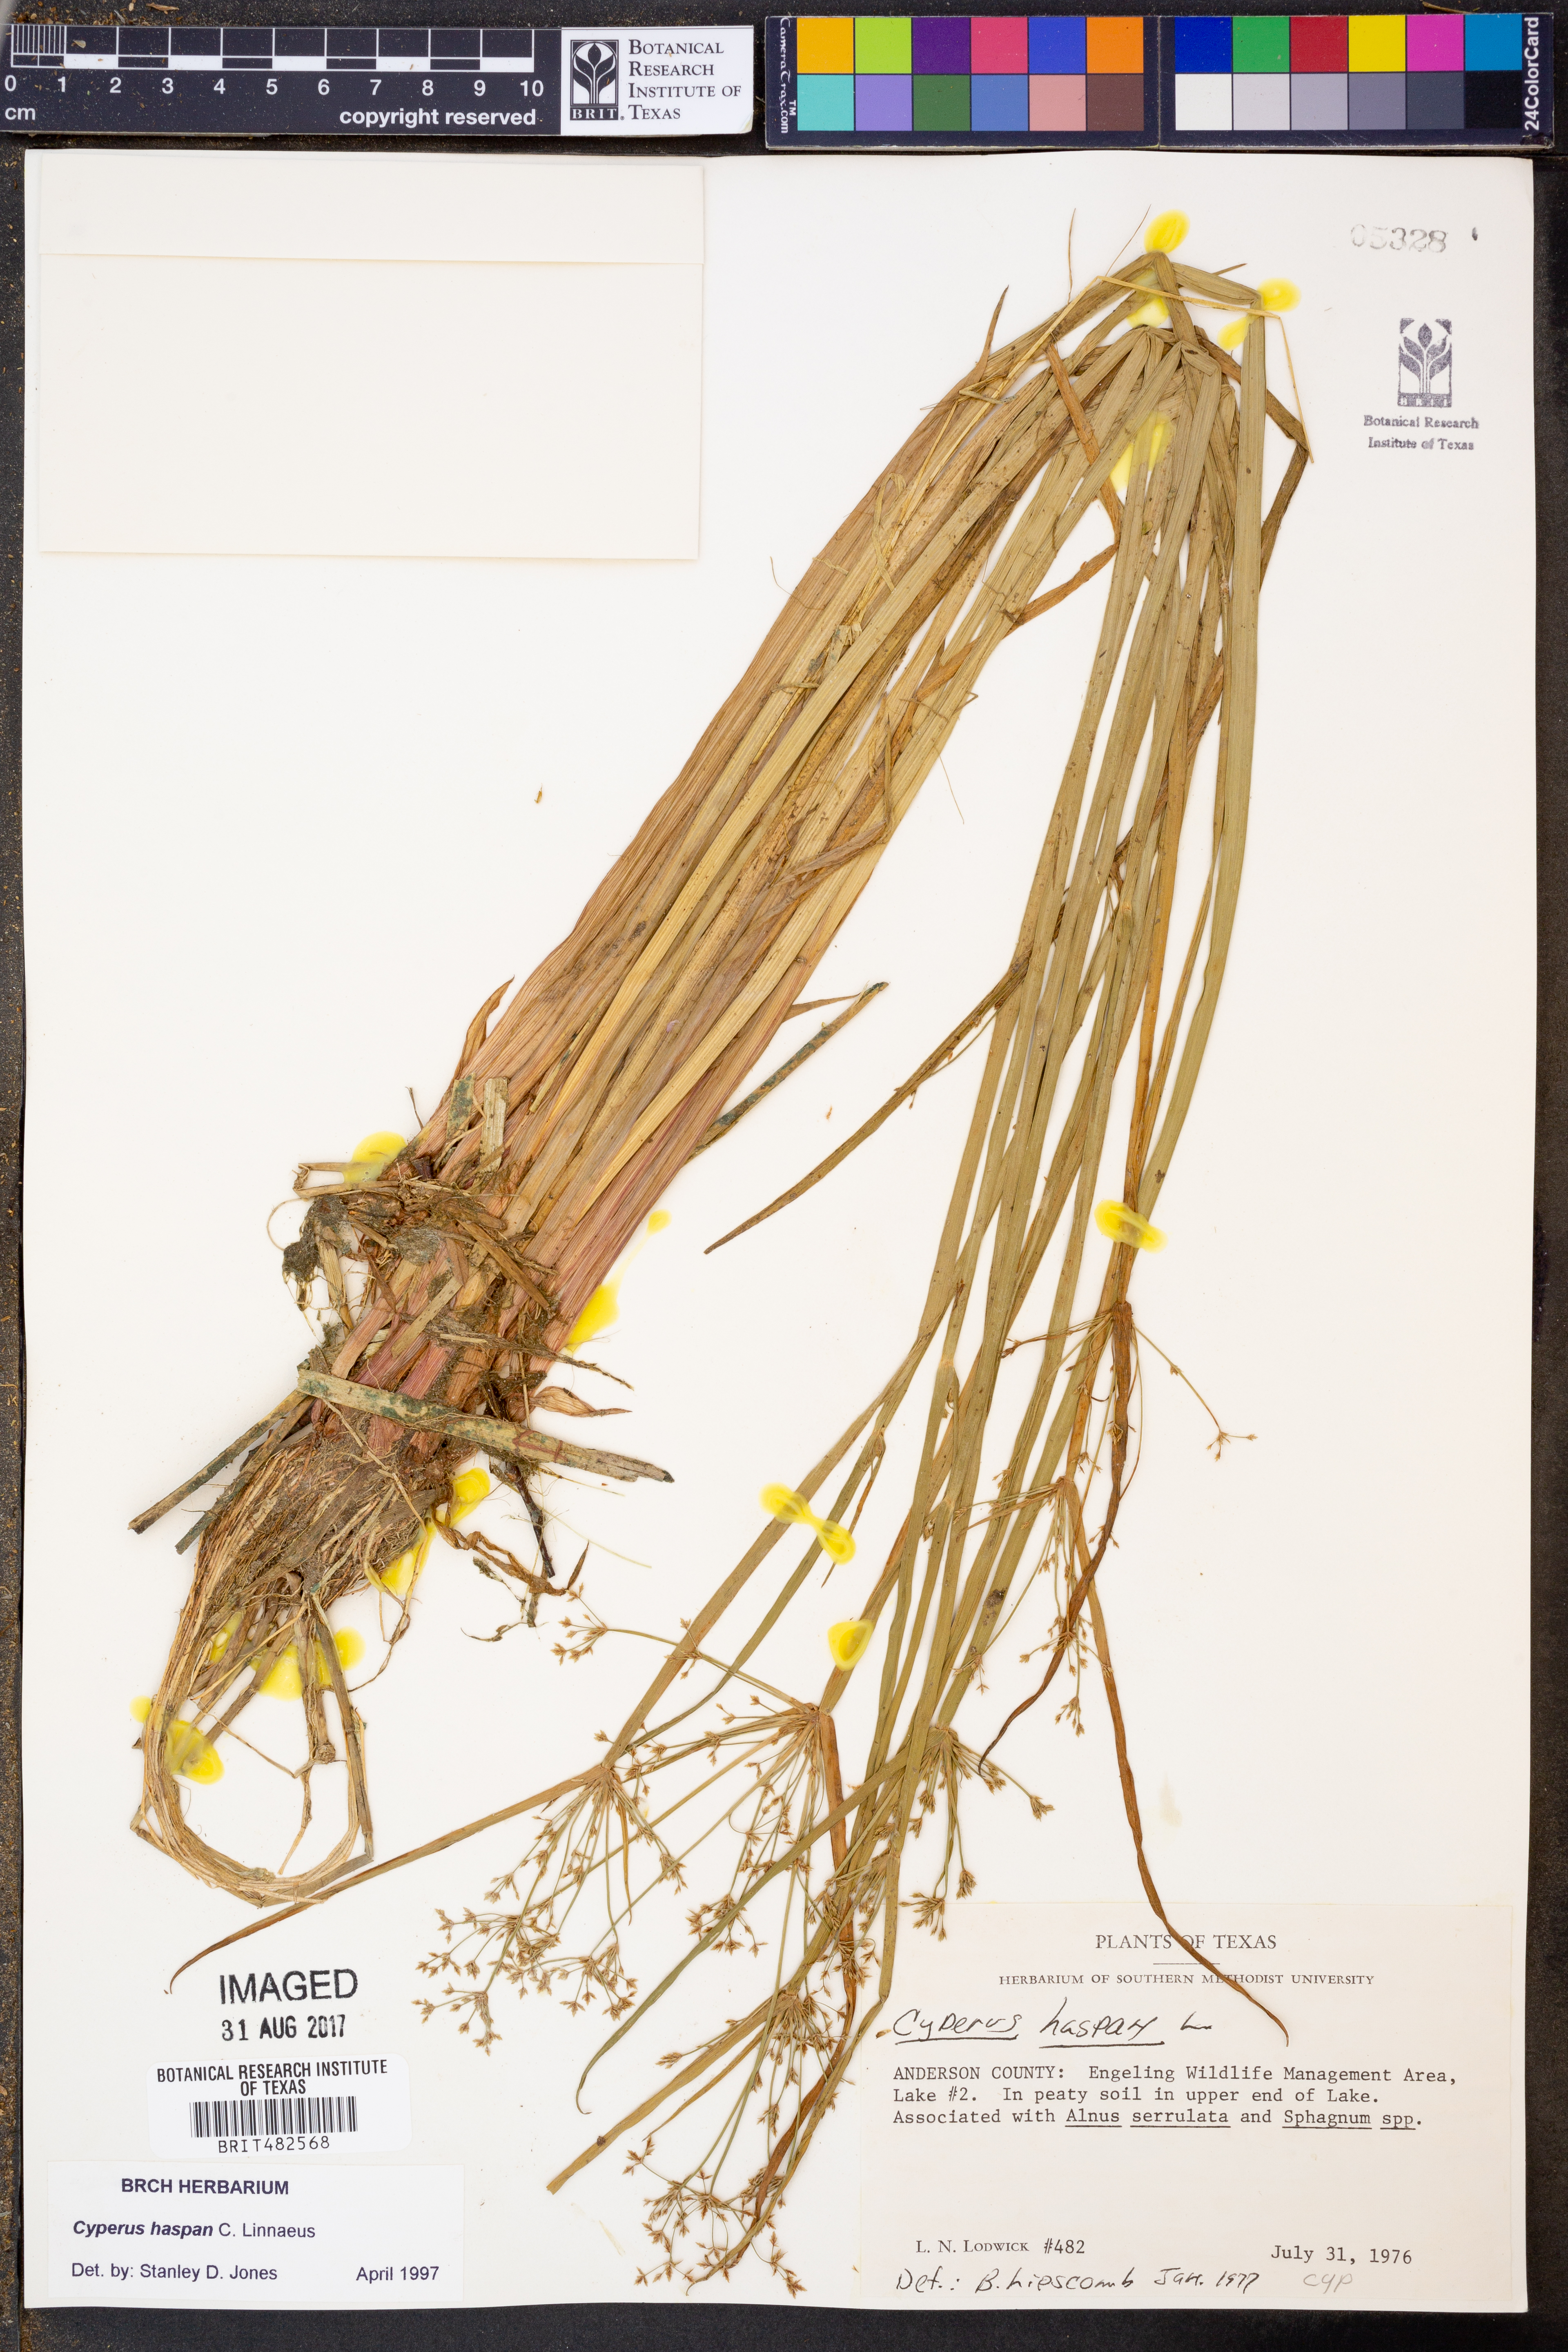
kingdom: Plantae
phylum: Tracheophyta
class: Liliopsida
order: Poales
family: Cyperaceae
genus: Cyperus
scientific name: Cyperus haspan
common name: Haspan flatsedge
